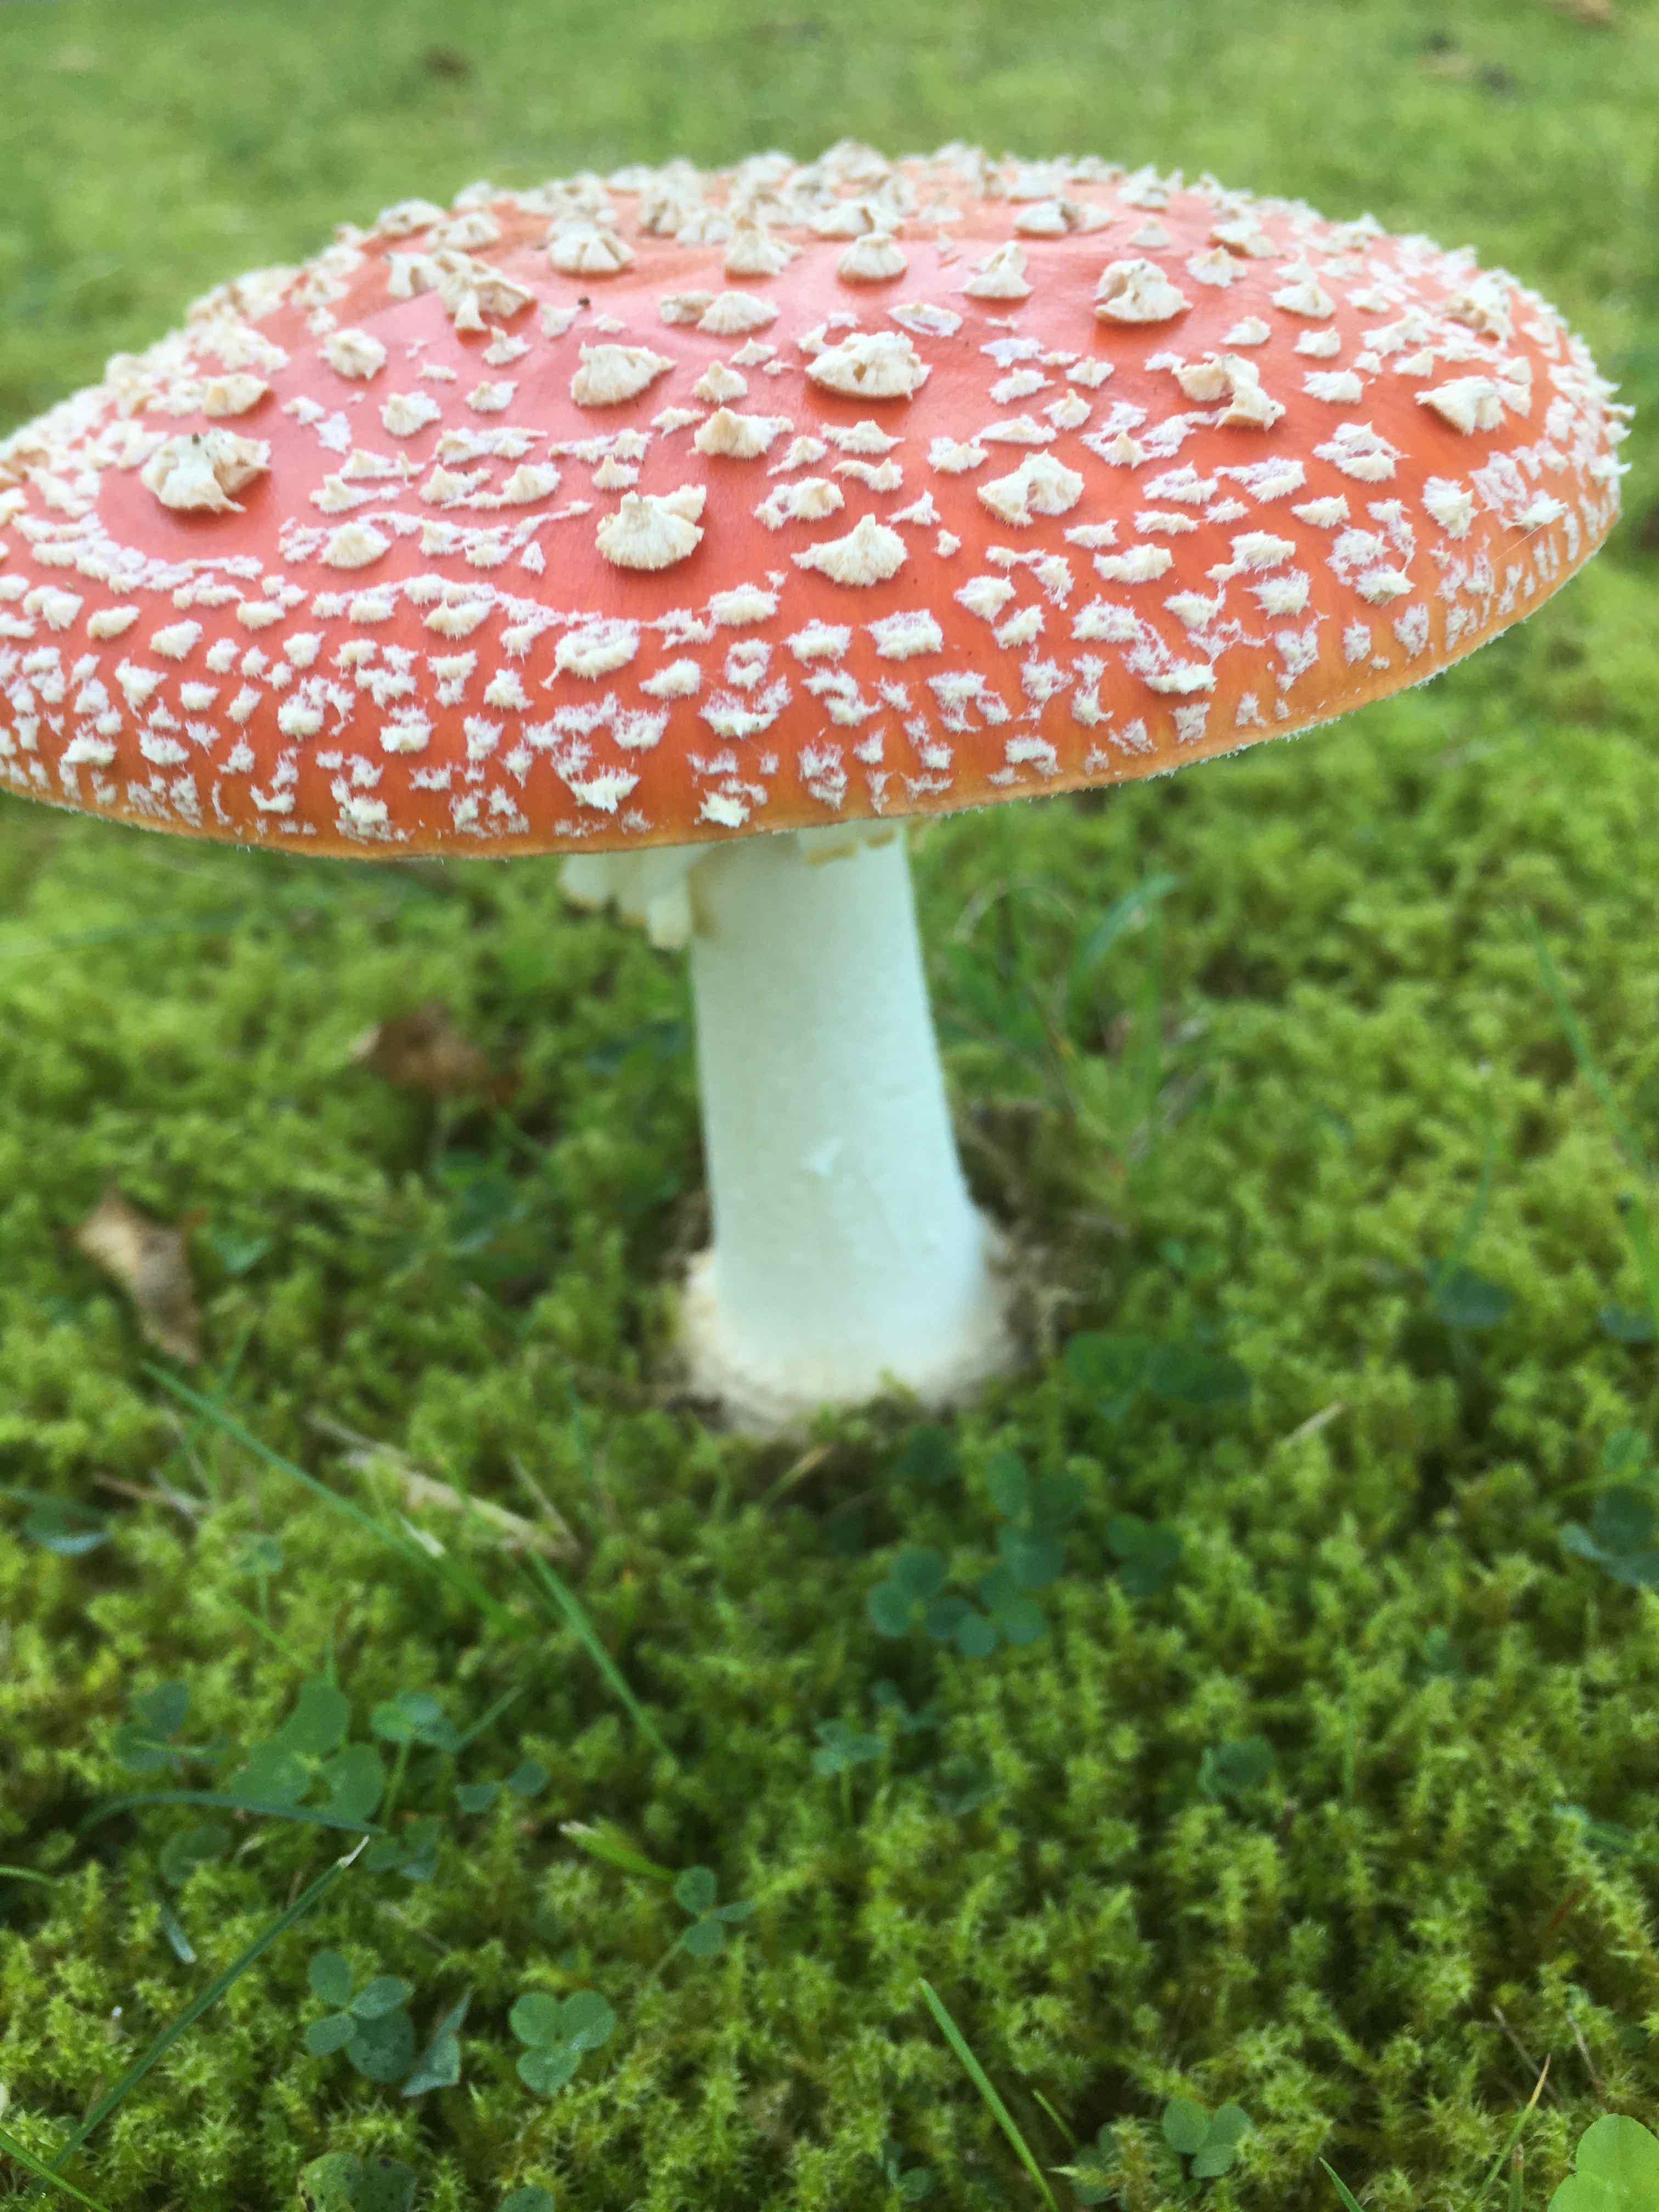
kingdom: Fungi
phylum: Basidiomycota
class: Agaricomycetes
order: Agaricales
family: Amanitaceae
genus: Amanita
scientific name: Amanita muscaria
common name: rød fluesvamp
